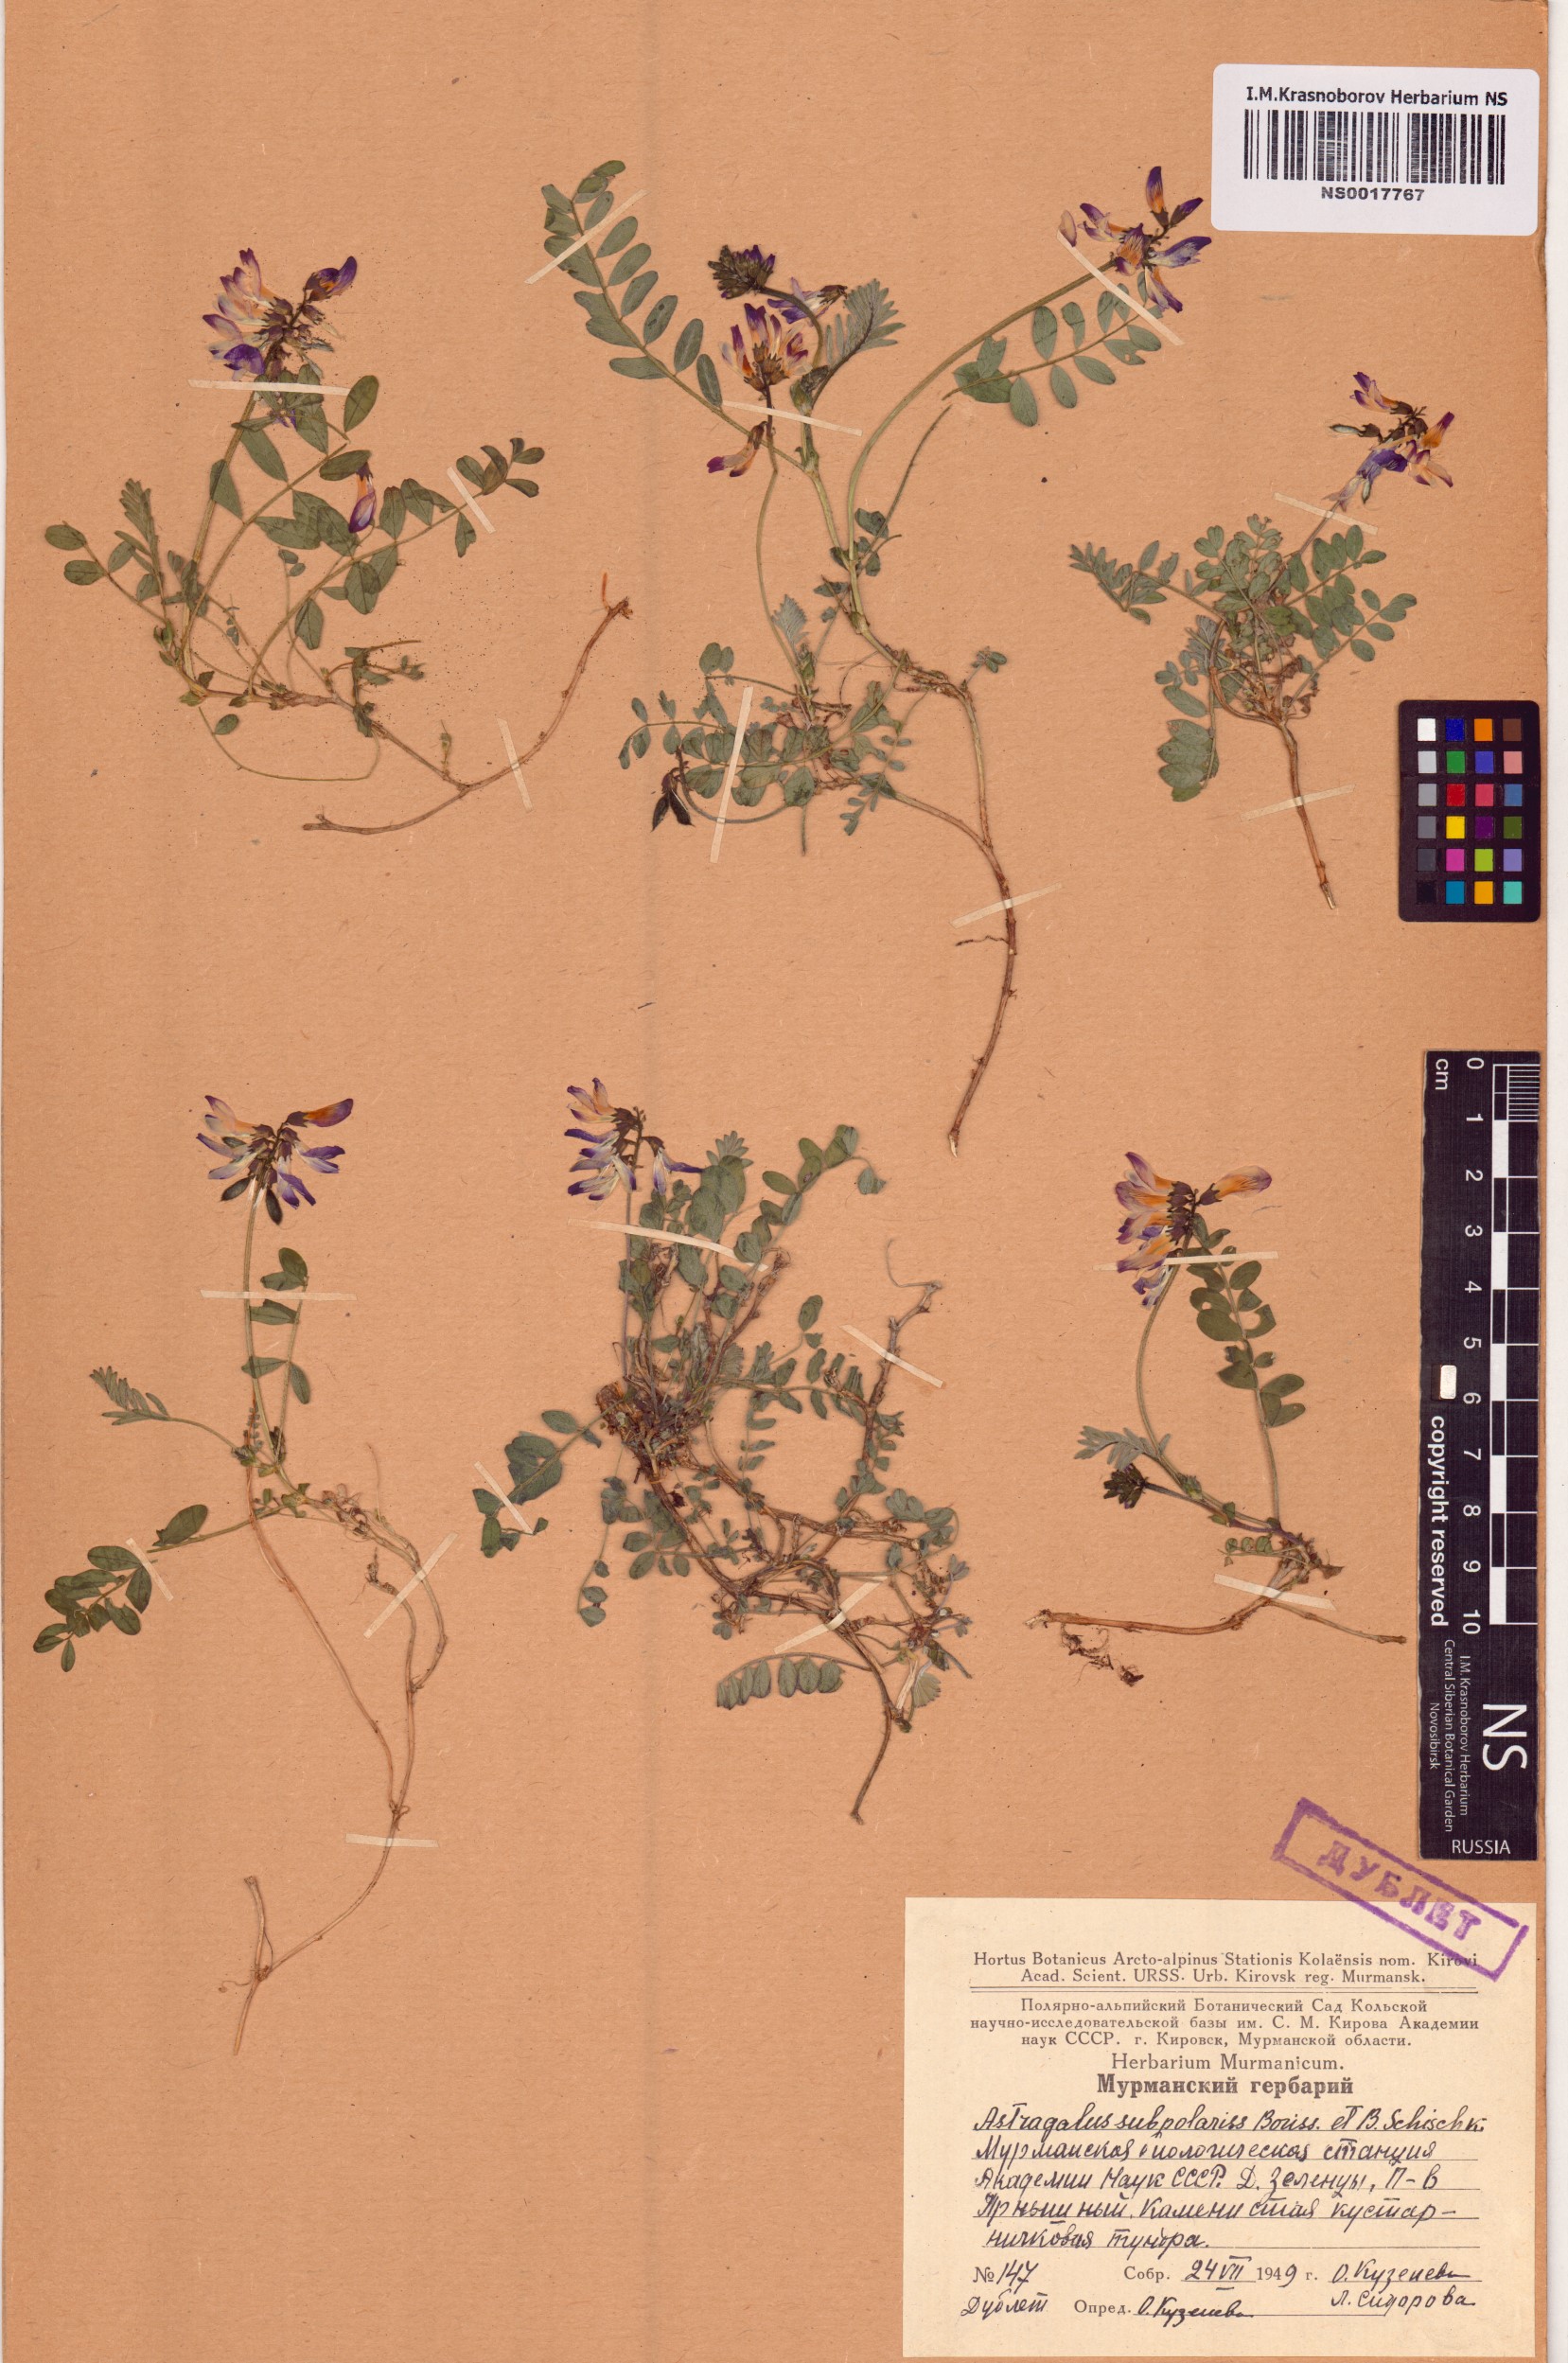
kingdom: Plantae
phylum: Tracheophyta
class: Magnoliopsida
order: Fabales
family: Fabaceae
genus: Astragalus
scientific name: Astragalus norvegicus
